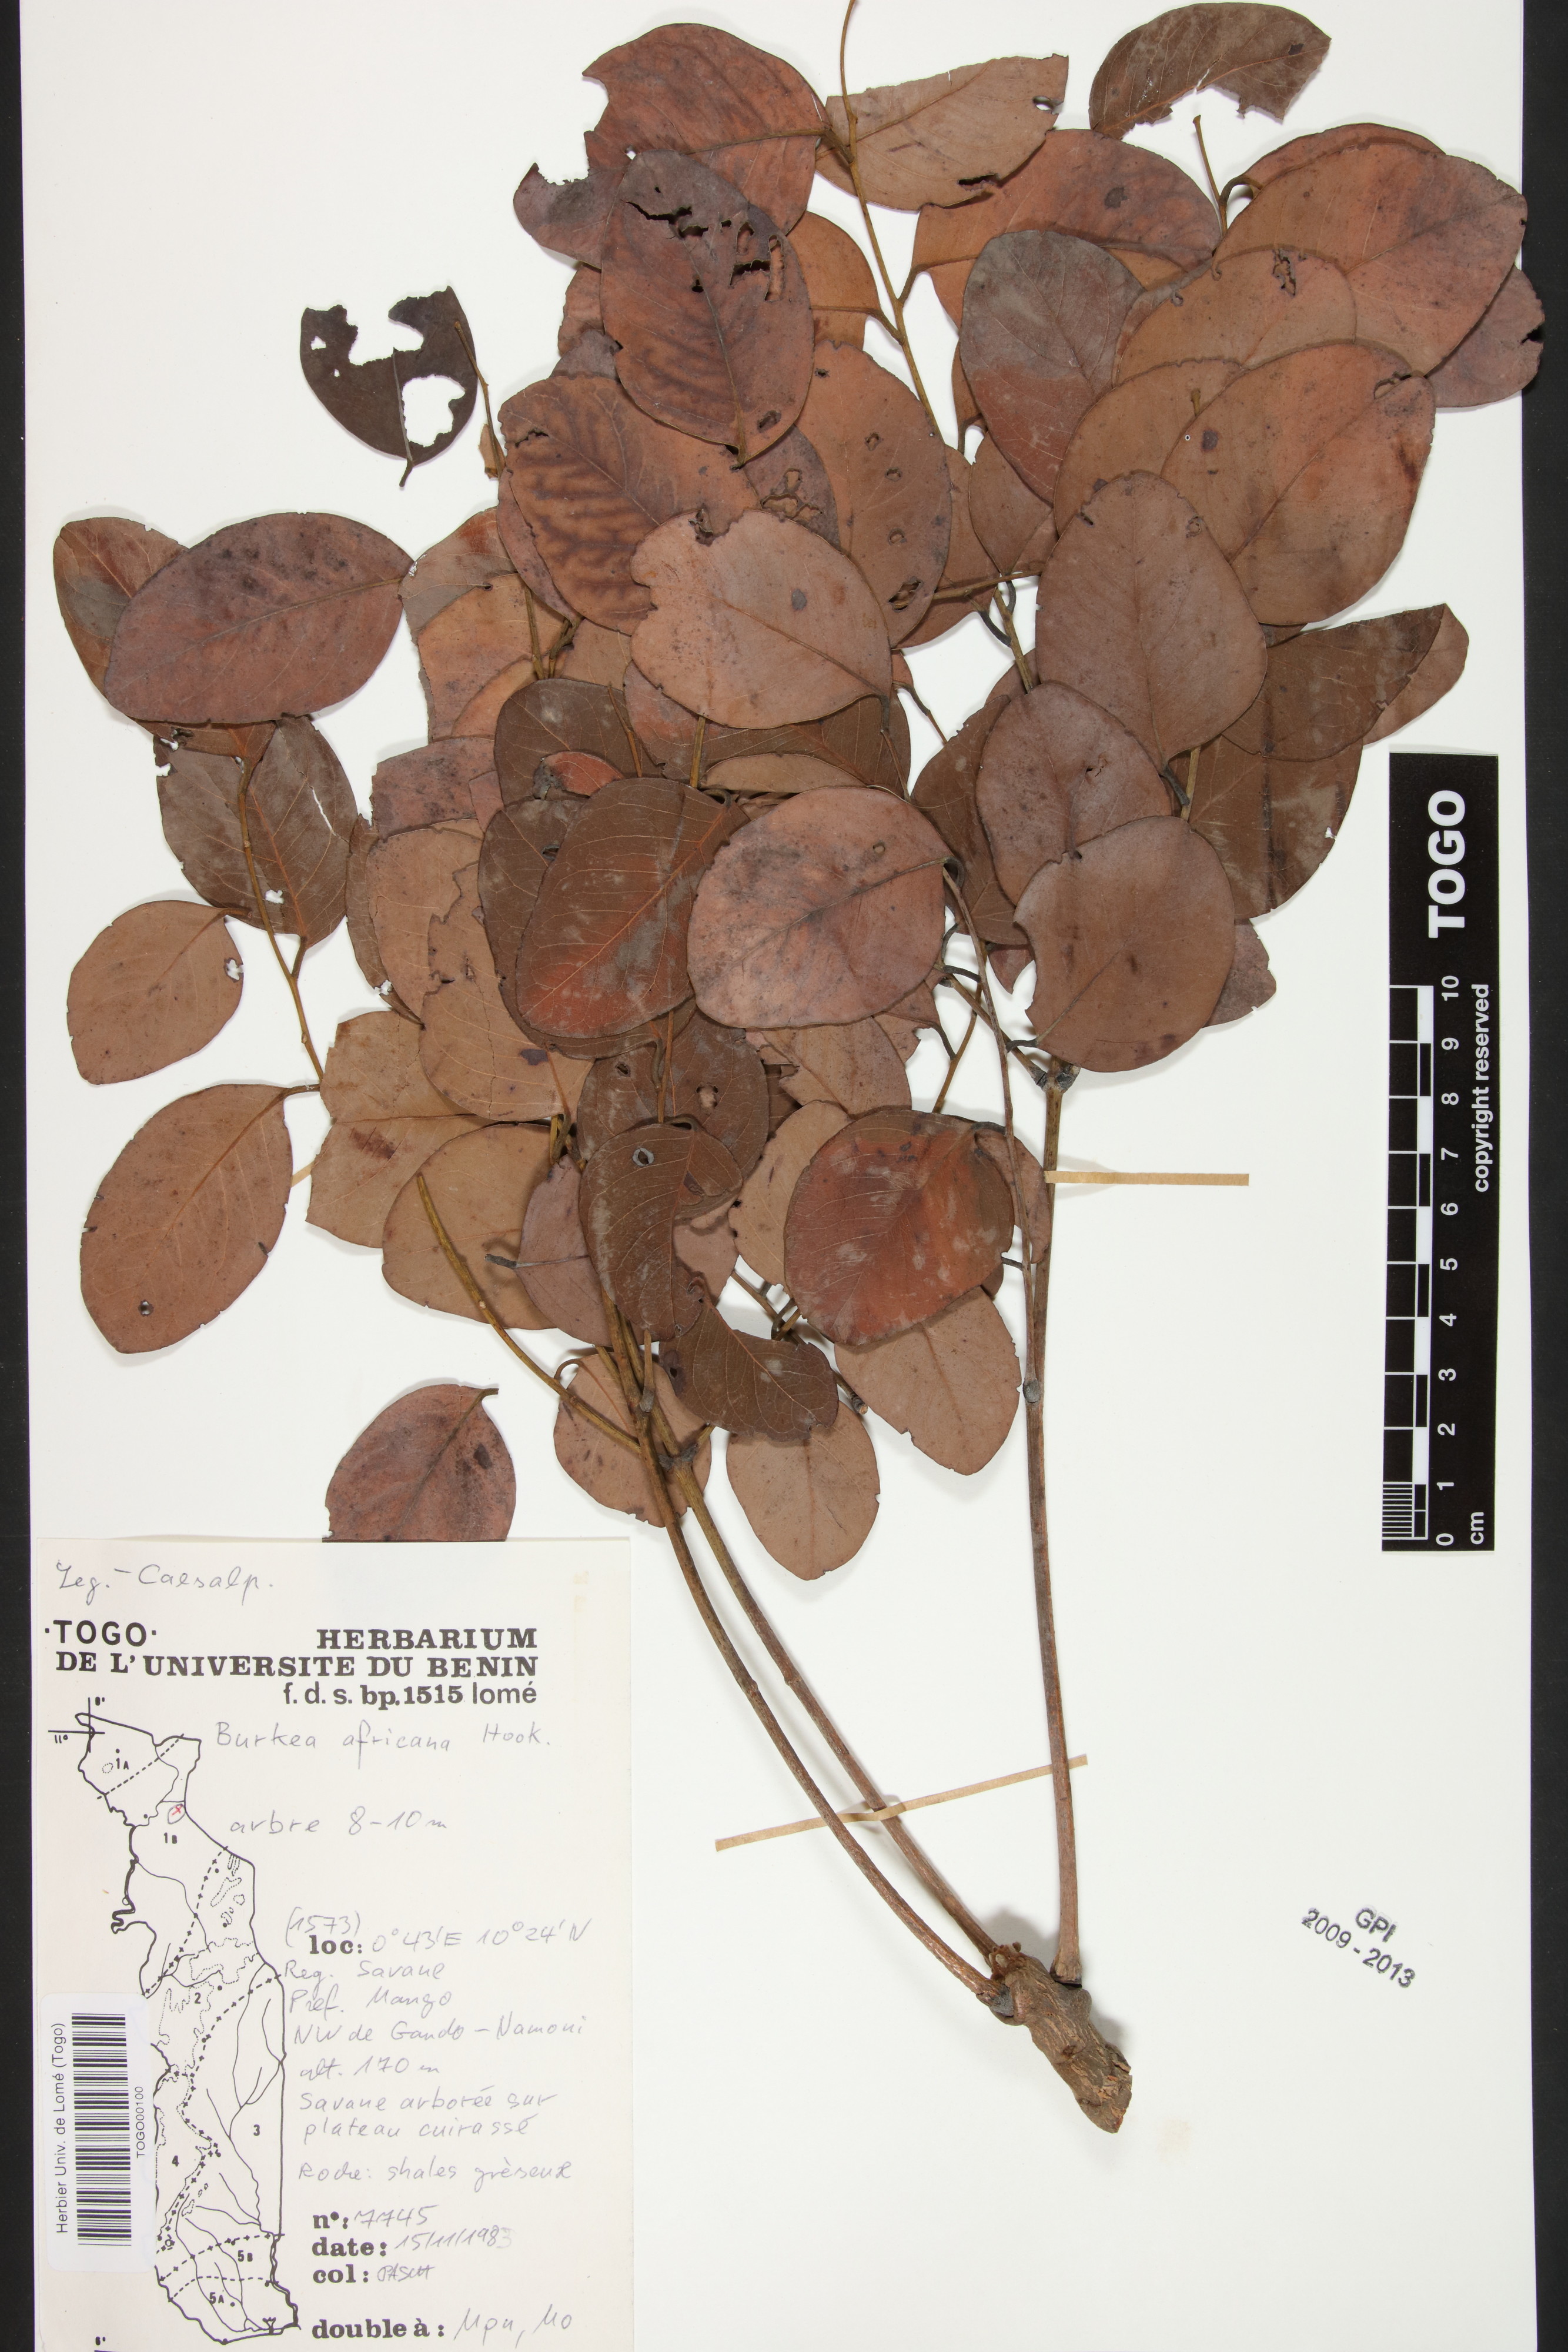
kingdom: Plantae
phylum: Tracheophyta
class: Magnoliopsida
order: Fabales
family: Fabaceae
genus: Burkea
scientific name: Burkea africana
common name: Mkalati tree
